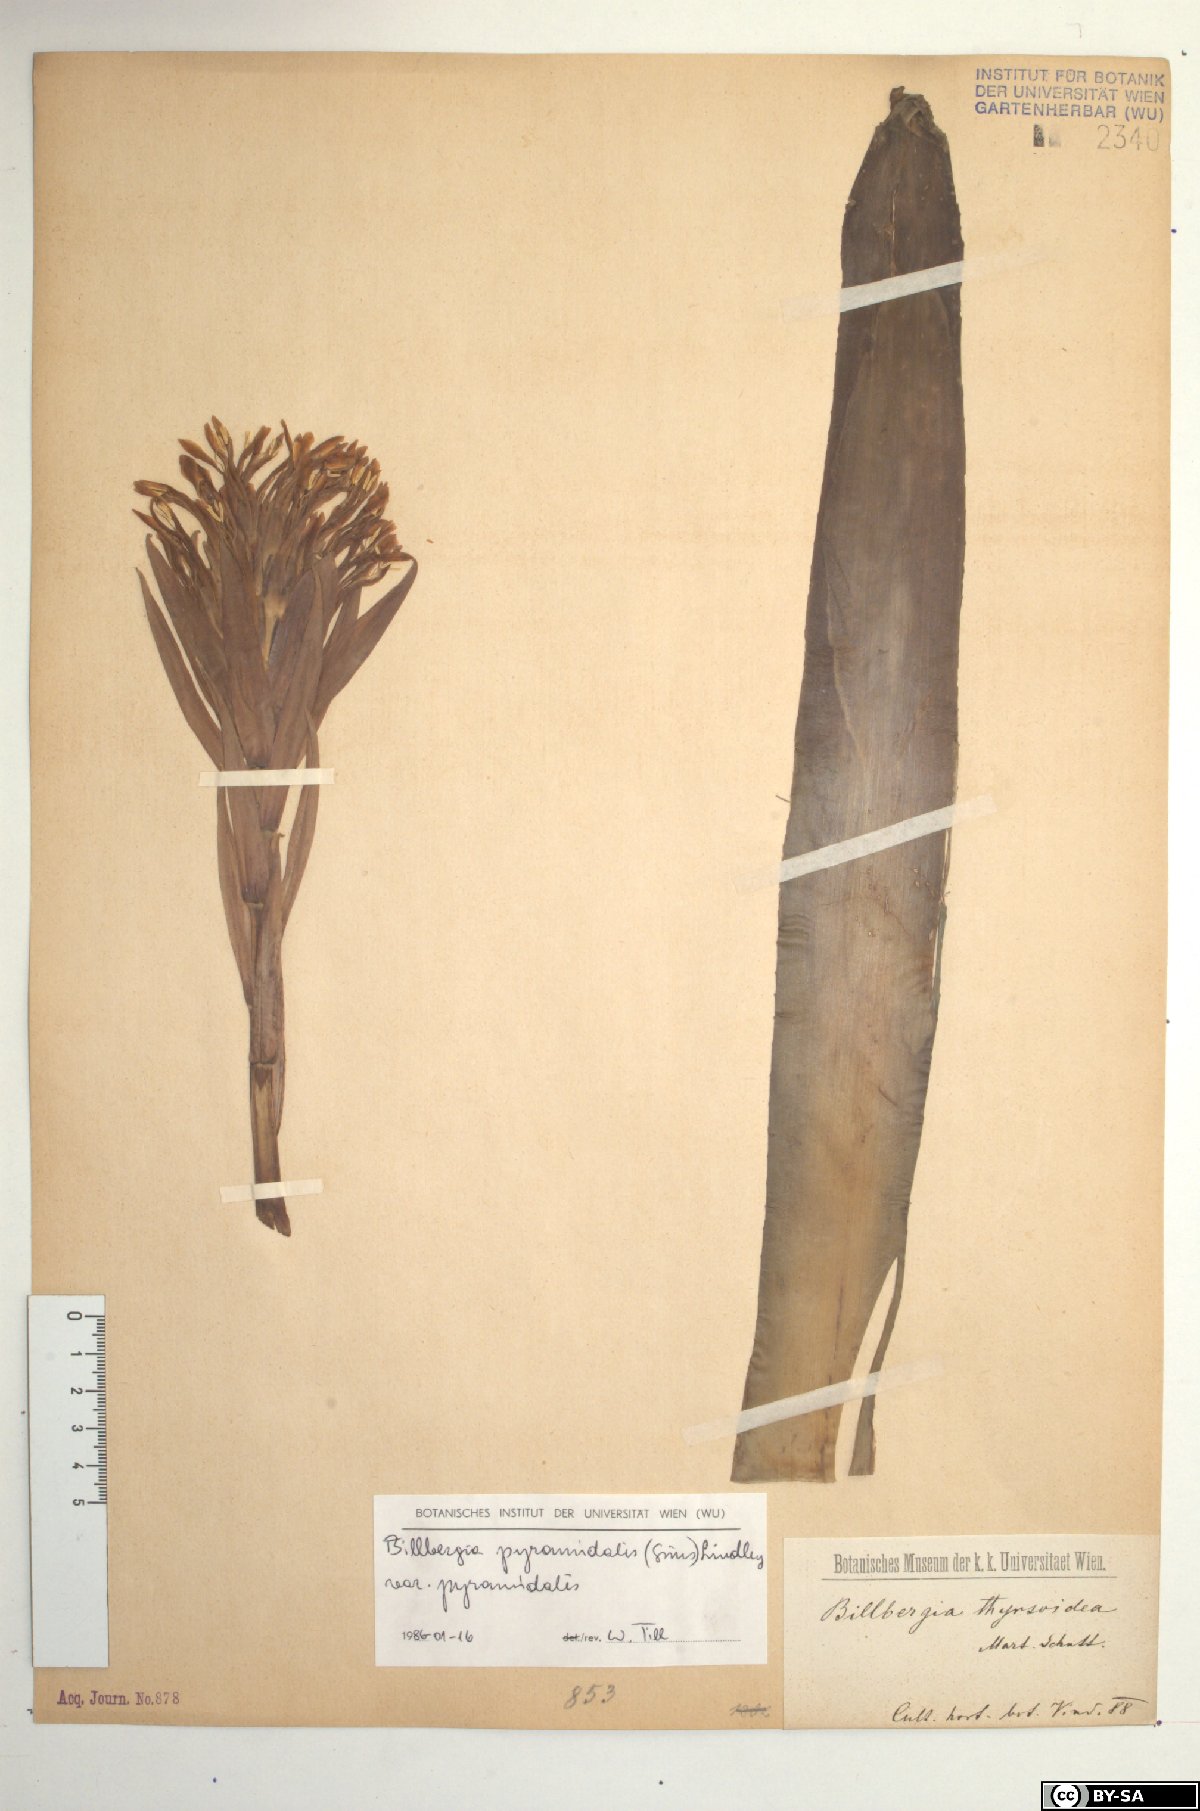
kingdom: Plantae
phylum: Tracheophyta
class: Liliopsida
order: Poales
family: Bromeliaceae
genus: Billbergia
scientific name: Billbergia pyramidalis
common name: Foolproofplant
